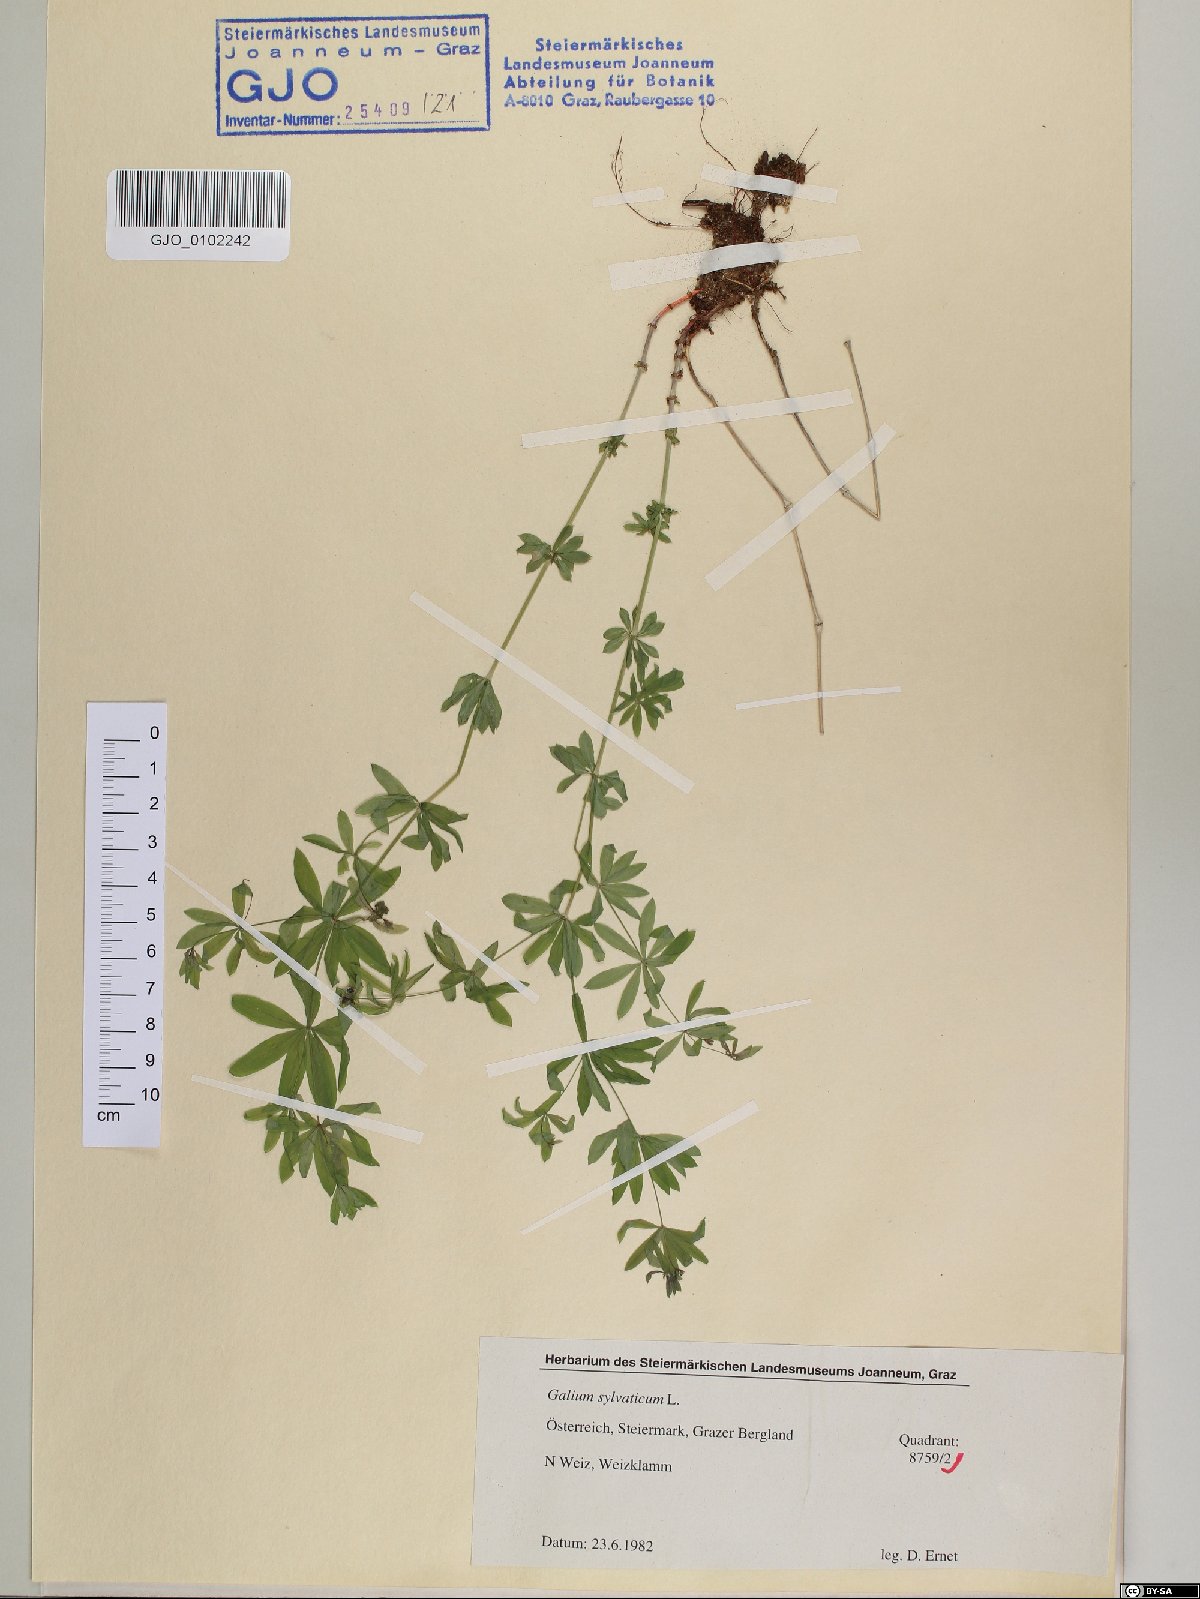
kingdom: Plantae
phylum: Tracheophyta
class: Magnoliopsida
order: Gentianales
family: Rubiaceae
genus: Galium
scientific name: Galium sylvaticum
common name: Wood bedstraw
